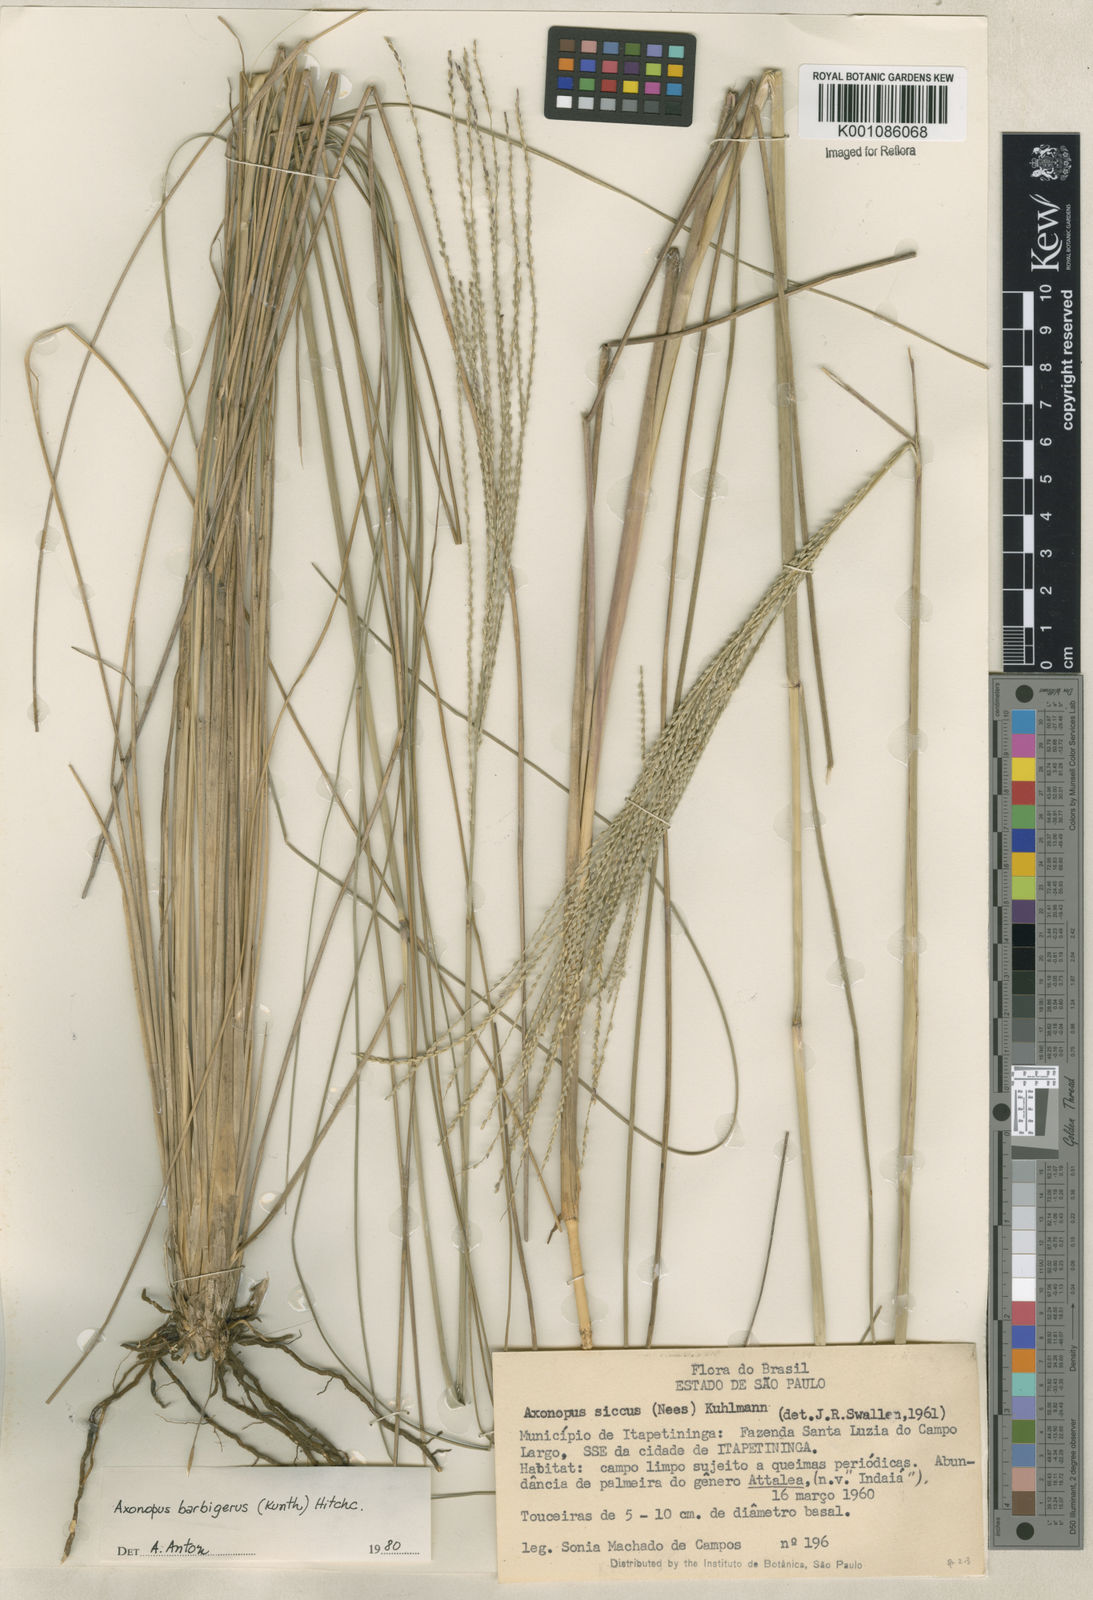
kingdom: Plantae
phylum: Tracheophyta
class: Liliopsida
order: Poales
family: Poaceae
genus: Axonopus
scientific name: Axonopus siccus
